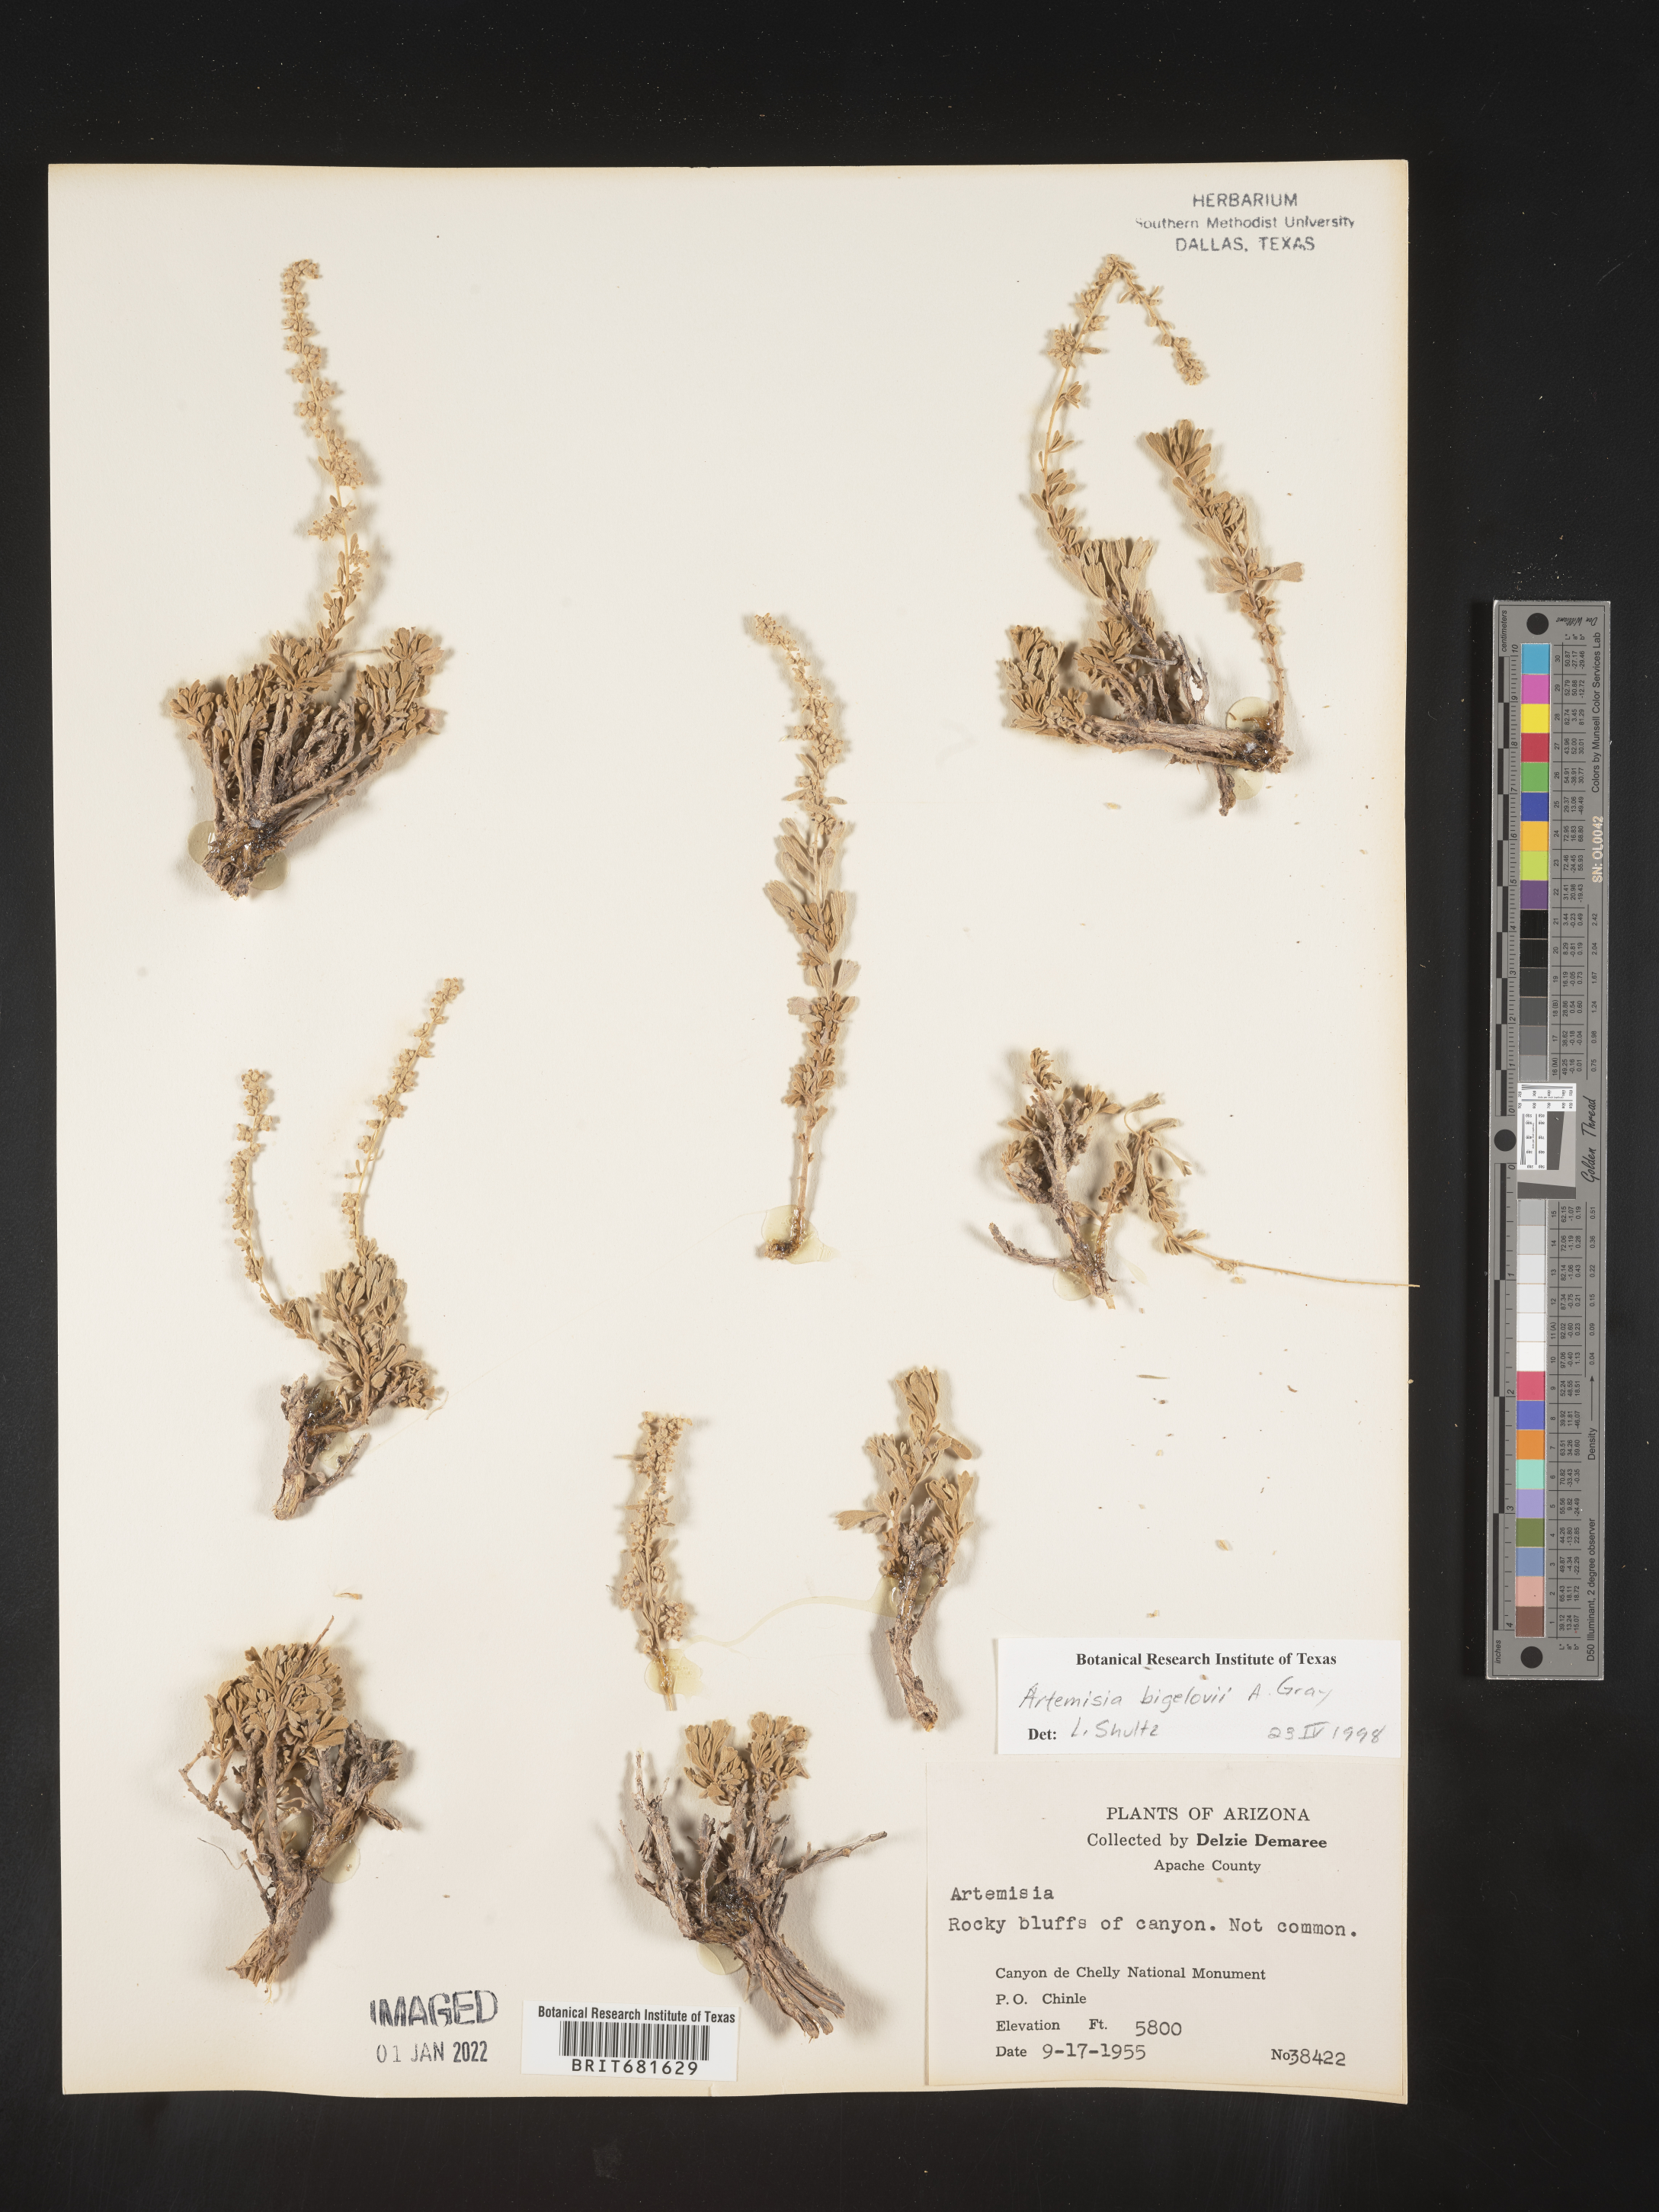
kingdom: Plantae
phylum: Tracheophyta
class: Magnoliopsida
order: Asterales
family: Asteraceae
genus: Artemisia
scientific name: Artemisia bigelovii
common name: Bigelow sagebrush
